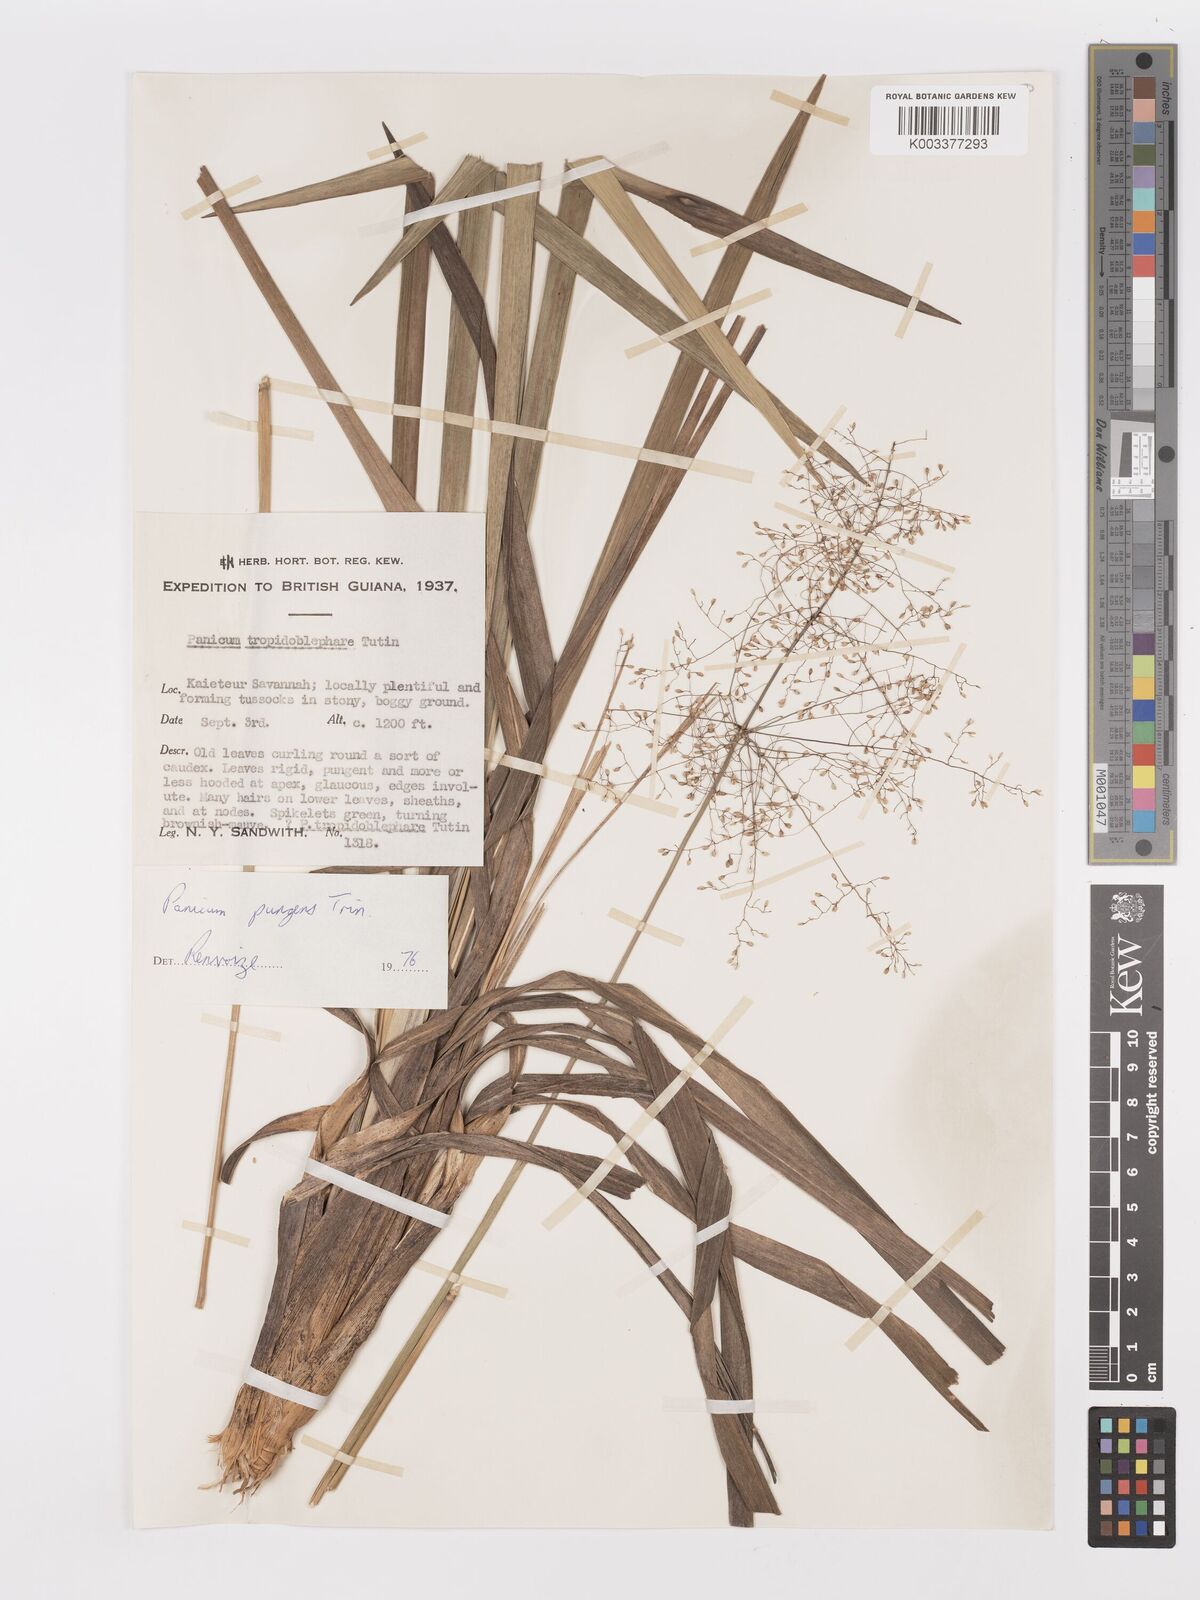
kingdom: Plantae
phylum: Tracheophyta
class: Liliopsida
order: Poales
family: Poaceae
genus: Apochloa
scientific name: Apochloa chnoodes
